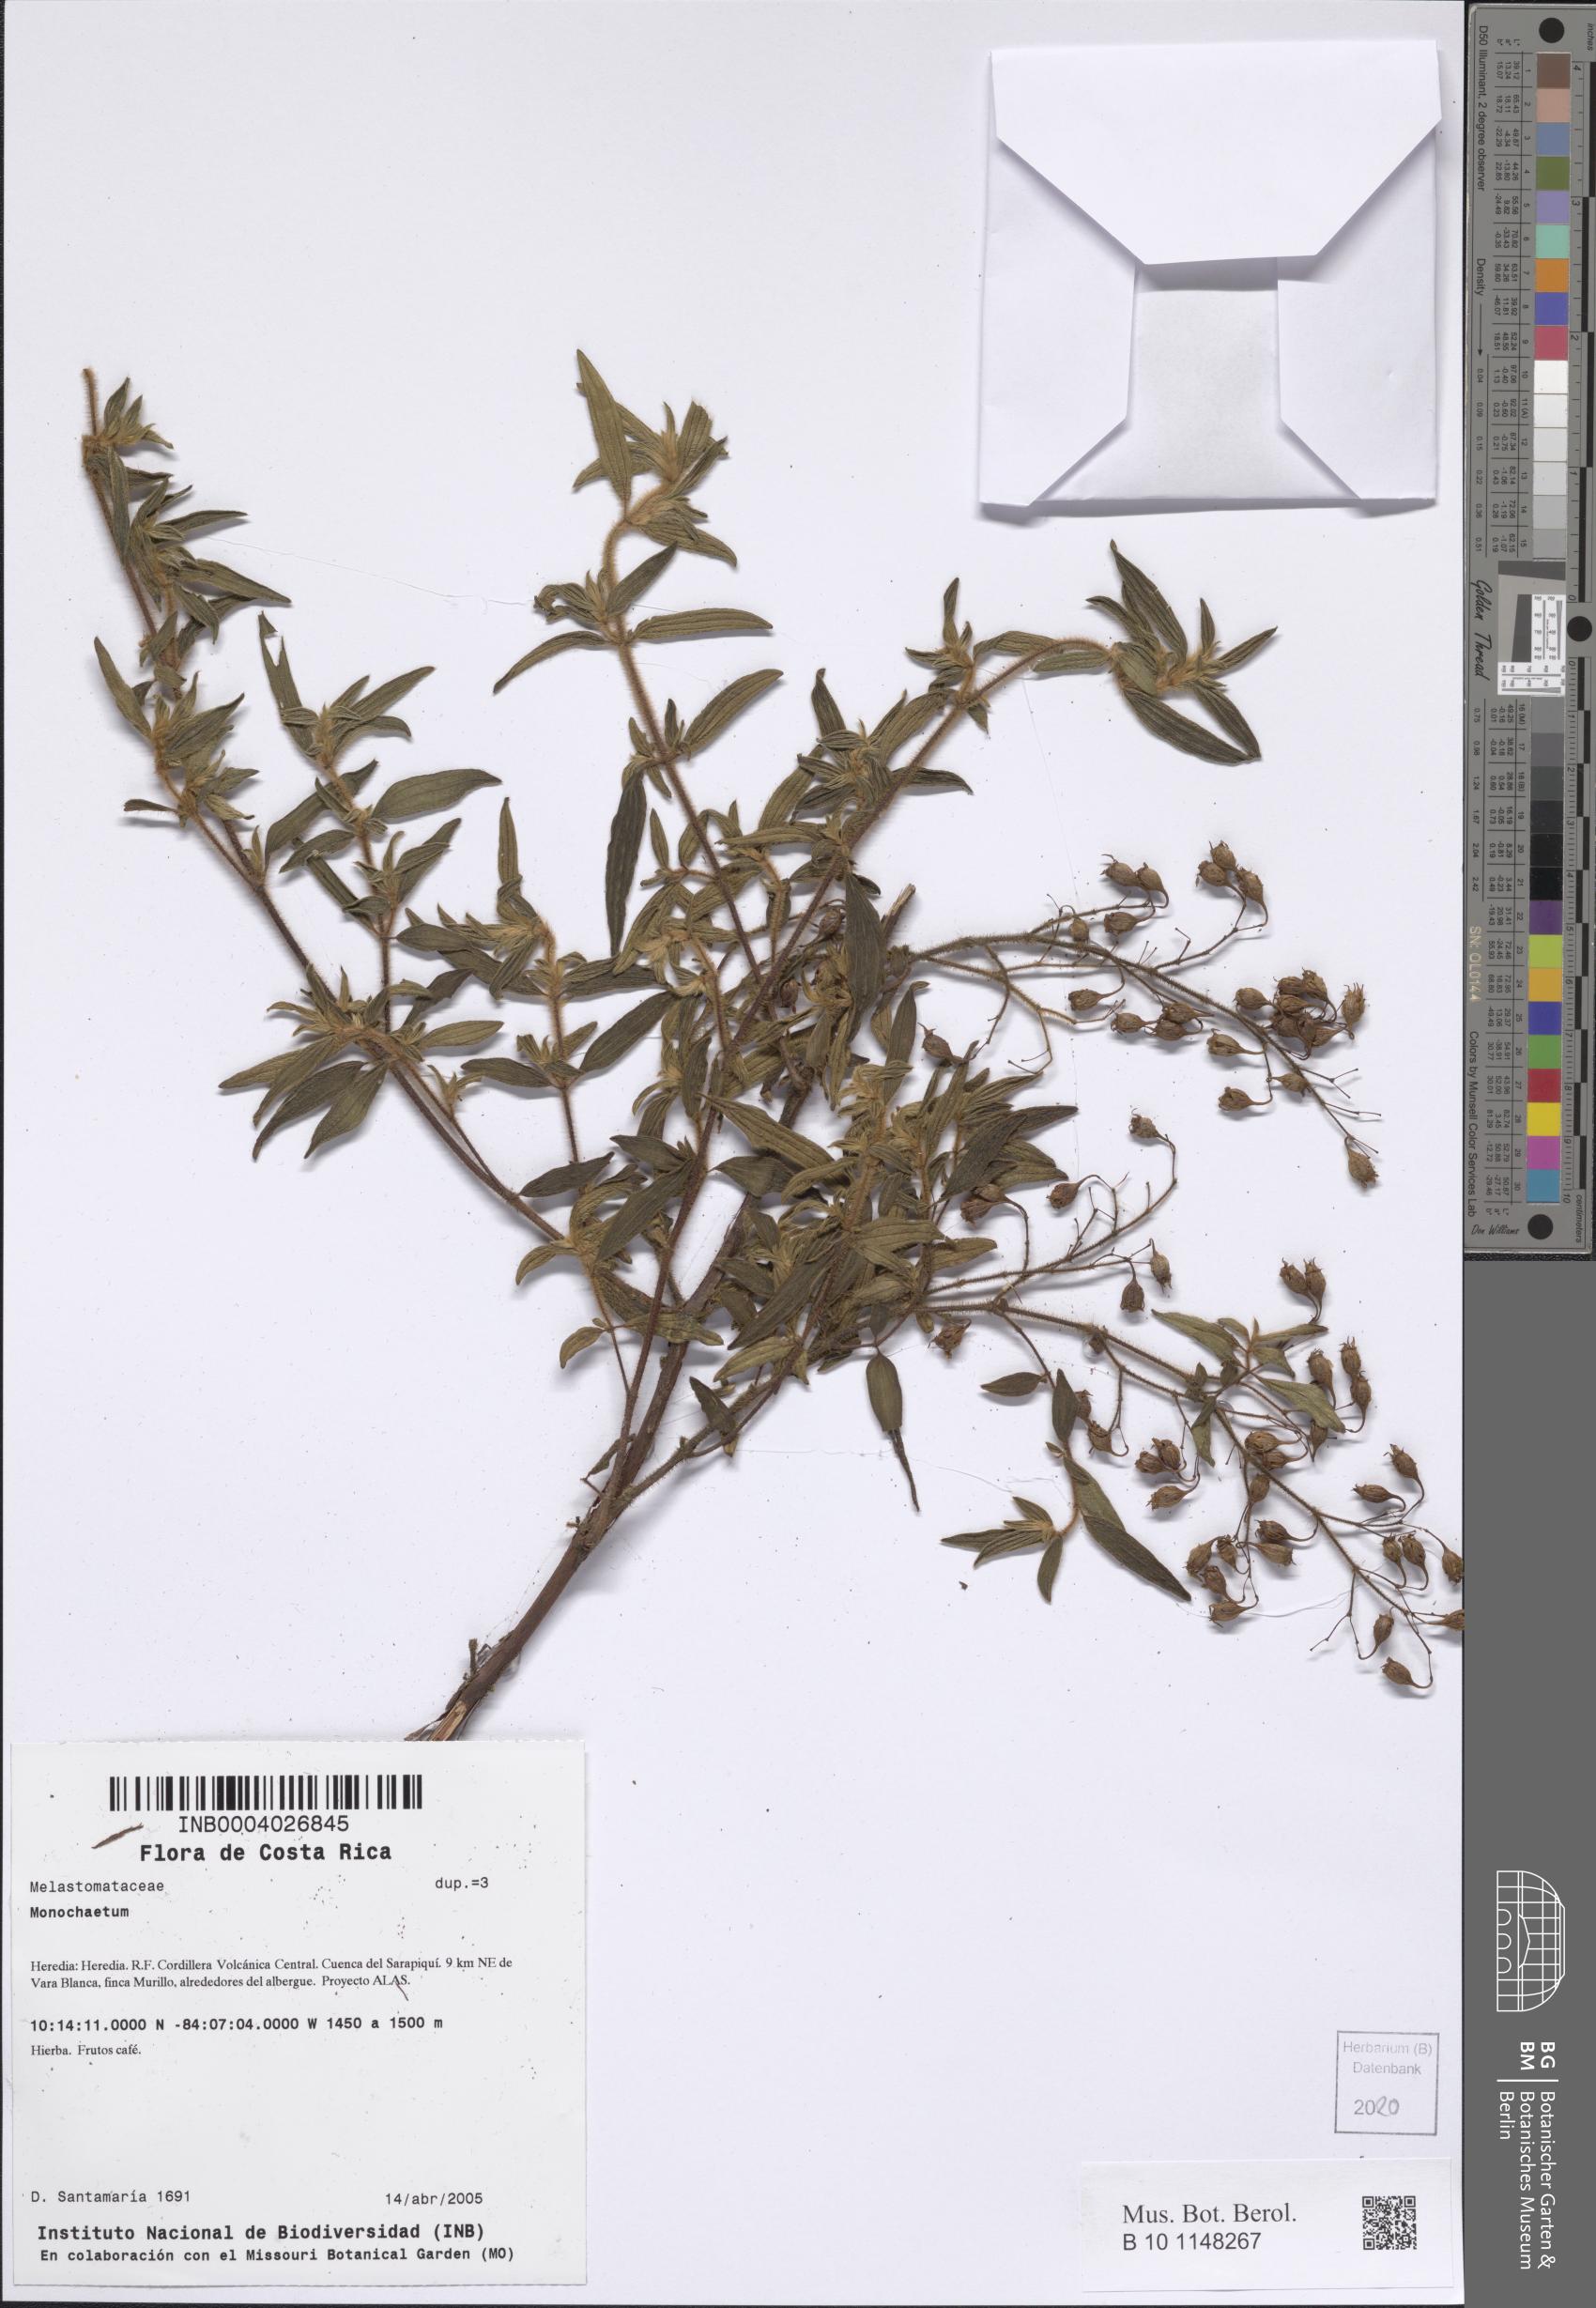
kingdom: Plantae
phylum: Tracheophyta
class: Magnoliopsida
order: Myrtales
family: Melastomataceae
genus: Monochaetum
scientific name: Monochaetum
